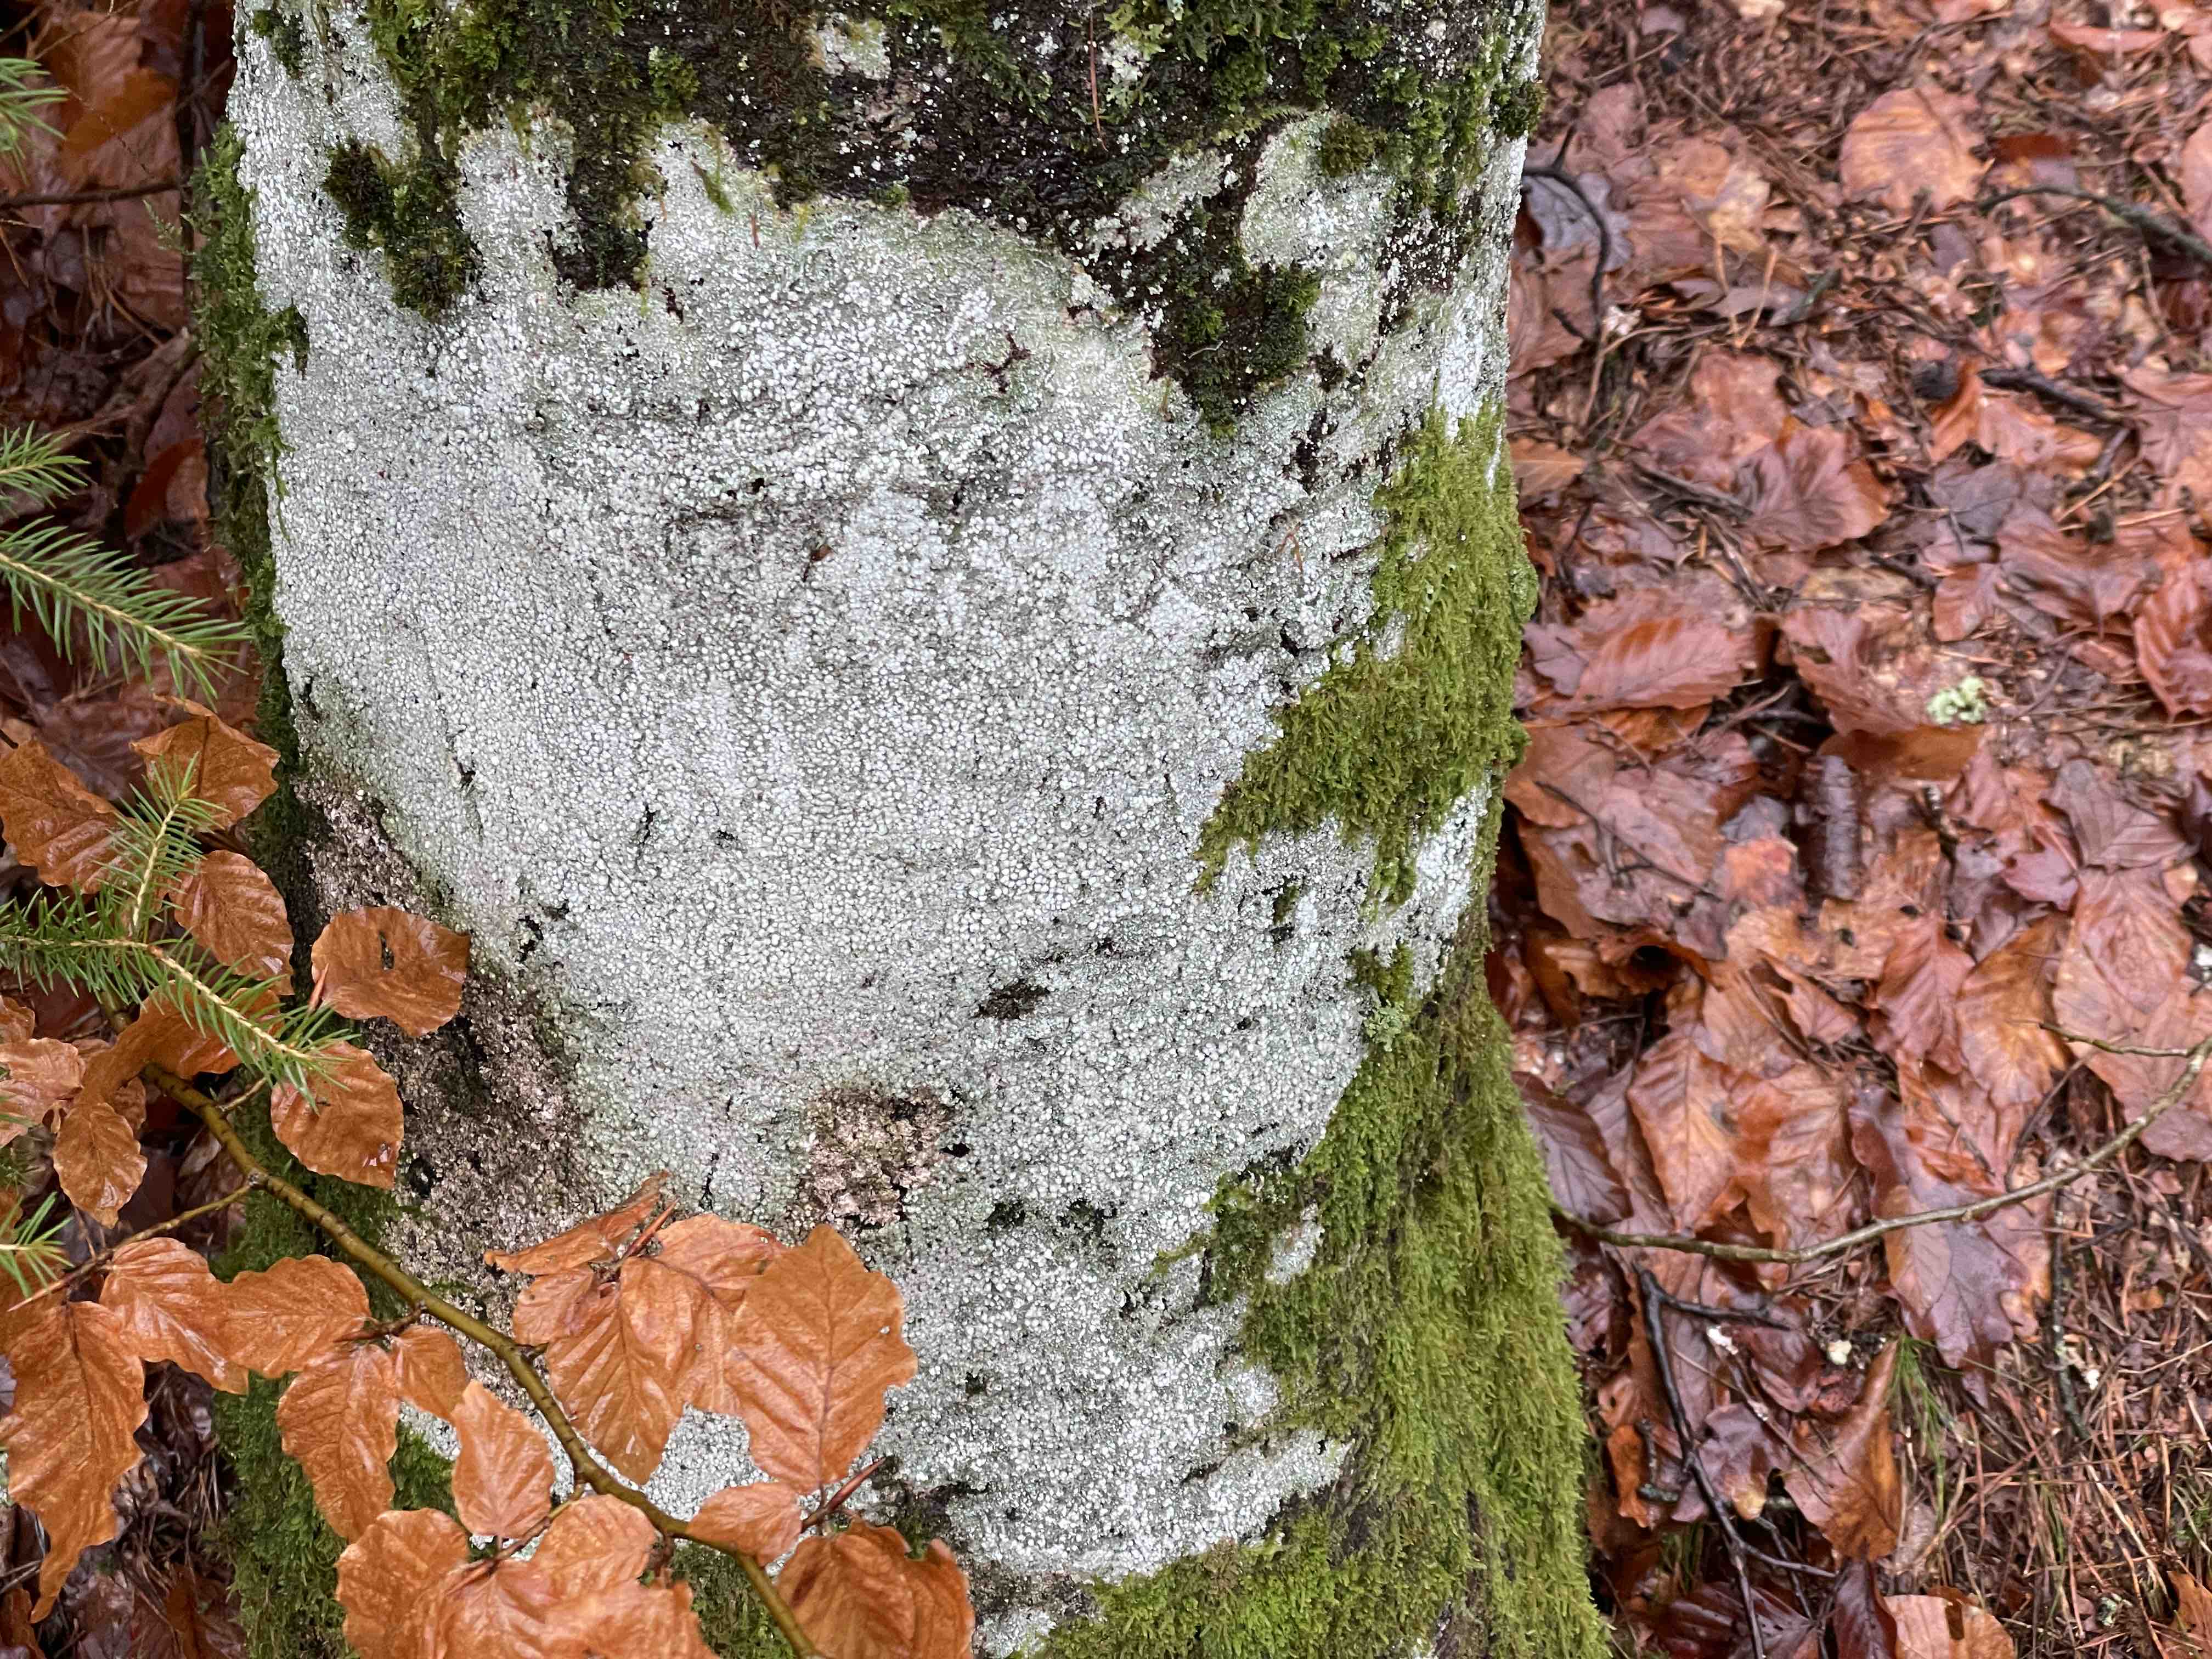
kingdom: Fungi
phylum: Ascomycota
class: Lecanoromycetes
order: Pertusariales
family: Pertusariaceae
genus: Lepra
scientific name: Lepra amara
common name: bitter prikvortelav
